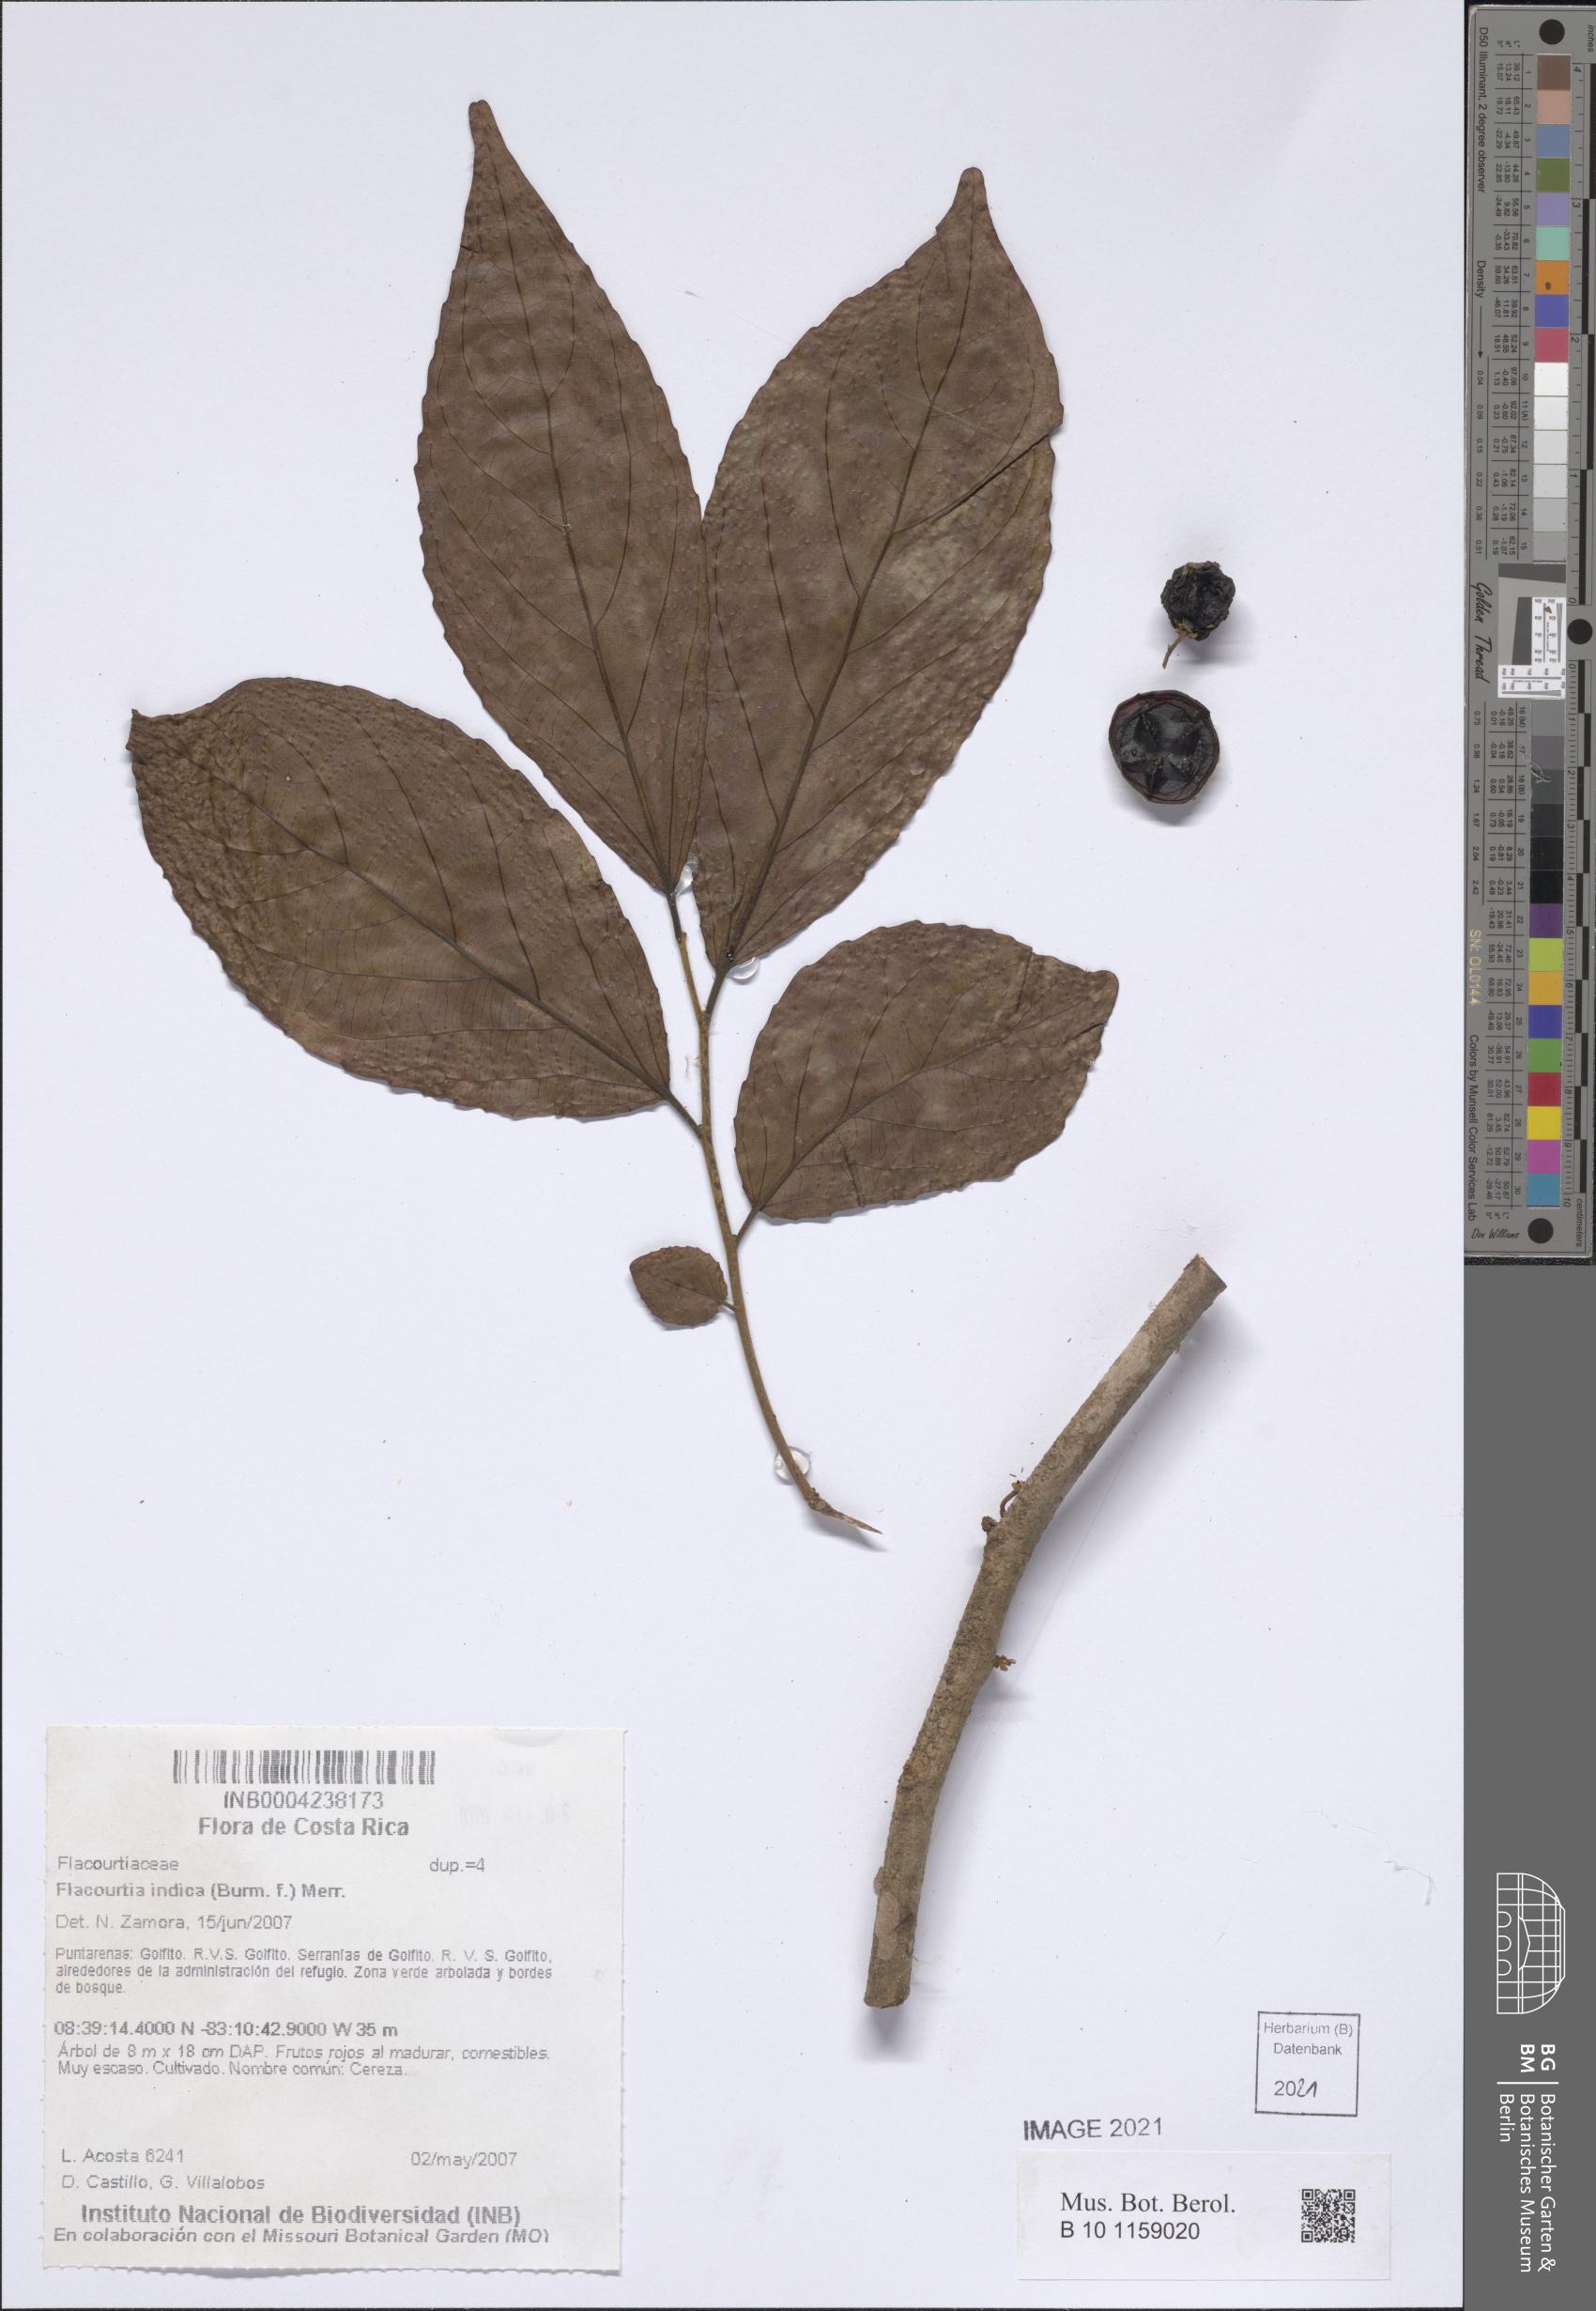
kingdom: Plantae
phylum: Tracheophyta
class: Magnoliopsida
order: Malpighiales
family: Salicaceae
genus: Flacourtia
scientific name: Flacourtia inermis
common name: Plum-of-martinique
